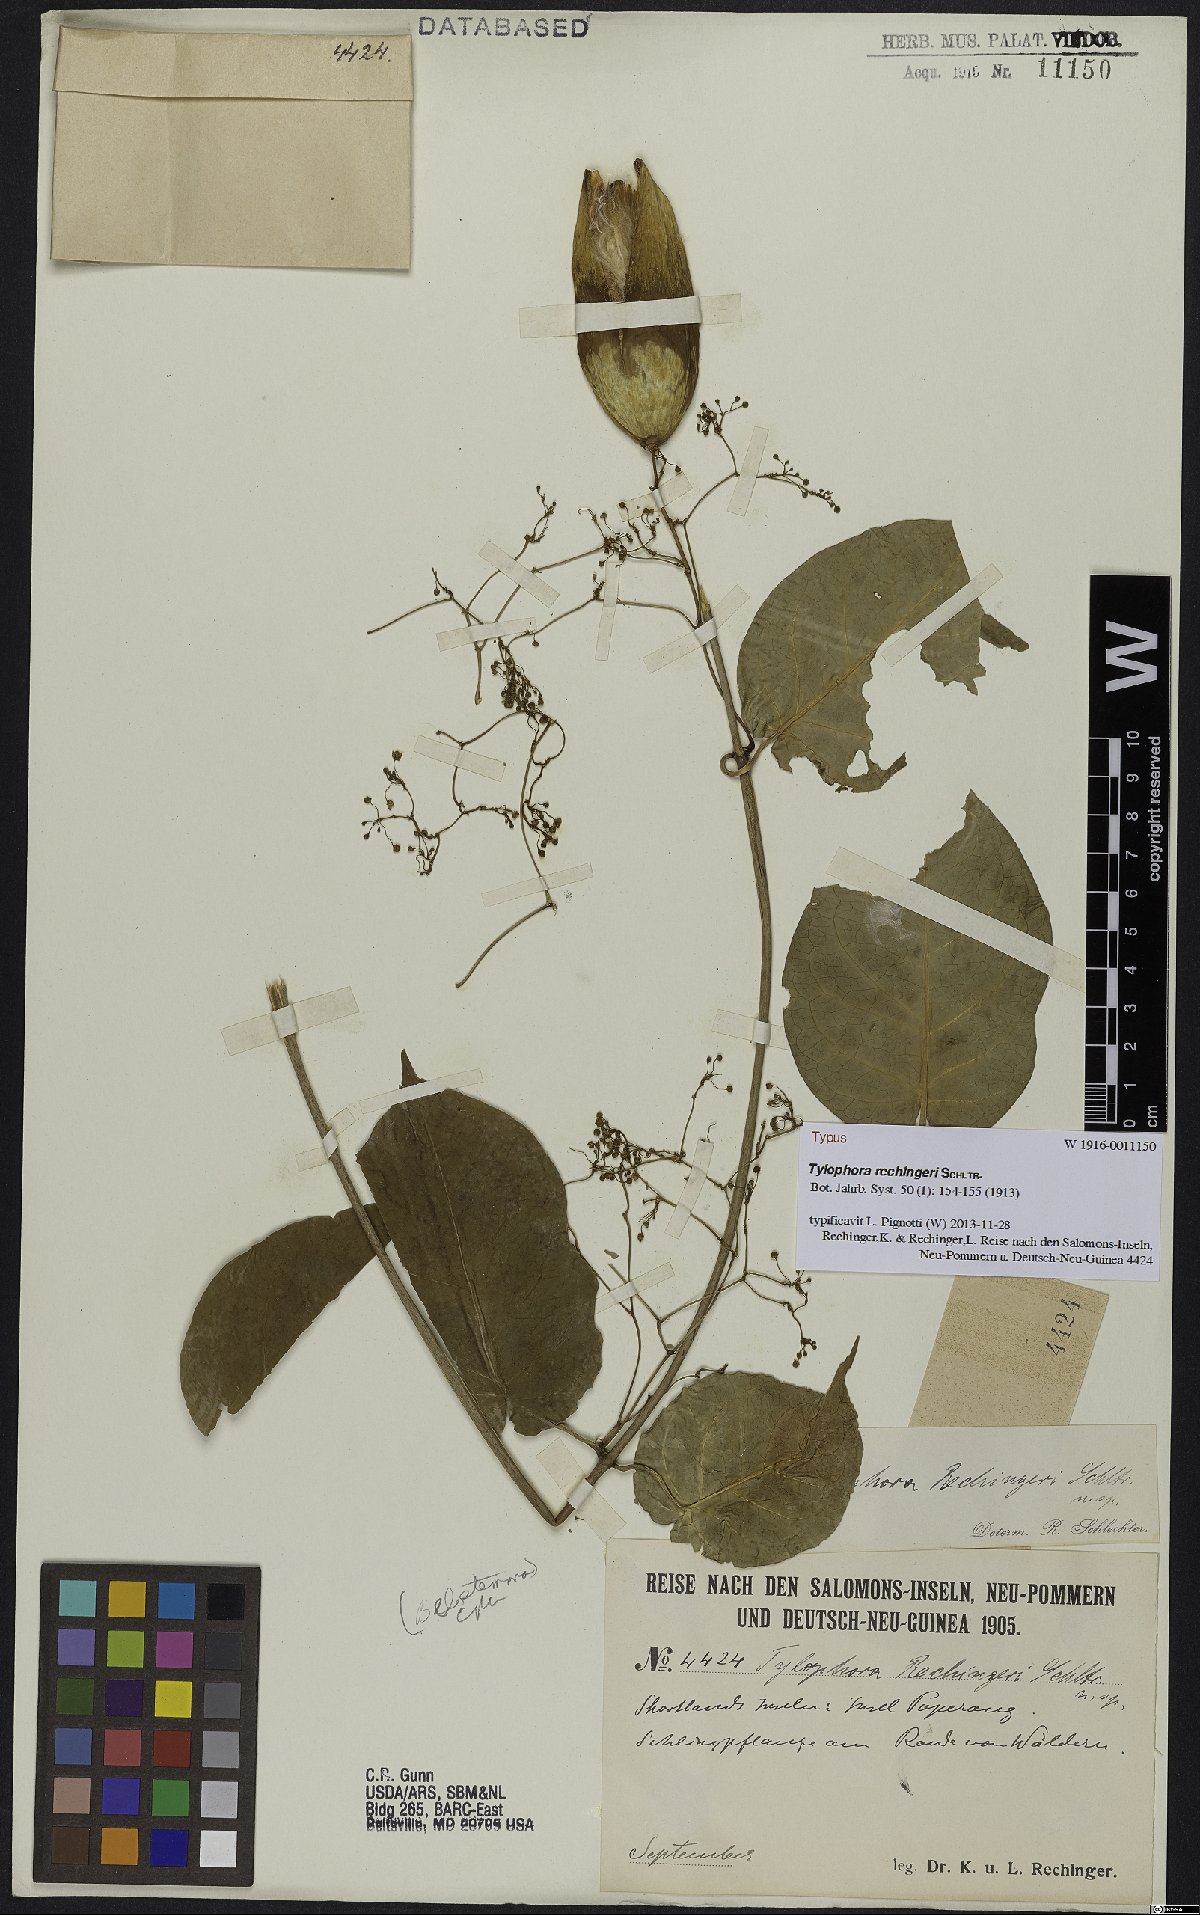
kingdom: Plantae
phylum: Tracheophyta
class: Magnoliopsida
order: Gentianales
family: Apocynaceae
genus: Vincetoxicum
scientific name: Vincetoxicum rechingeri
